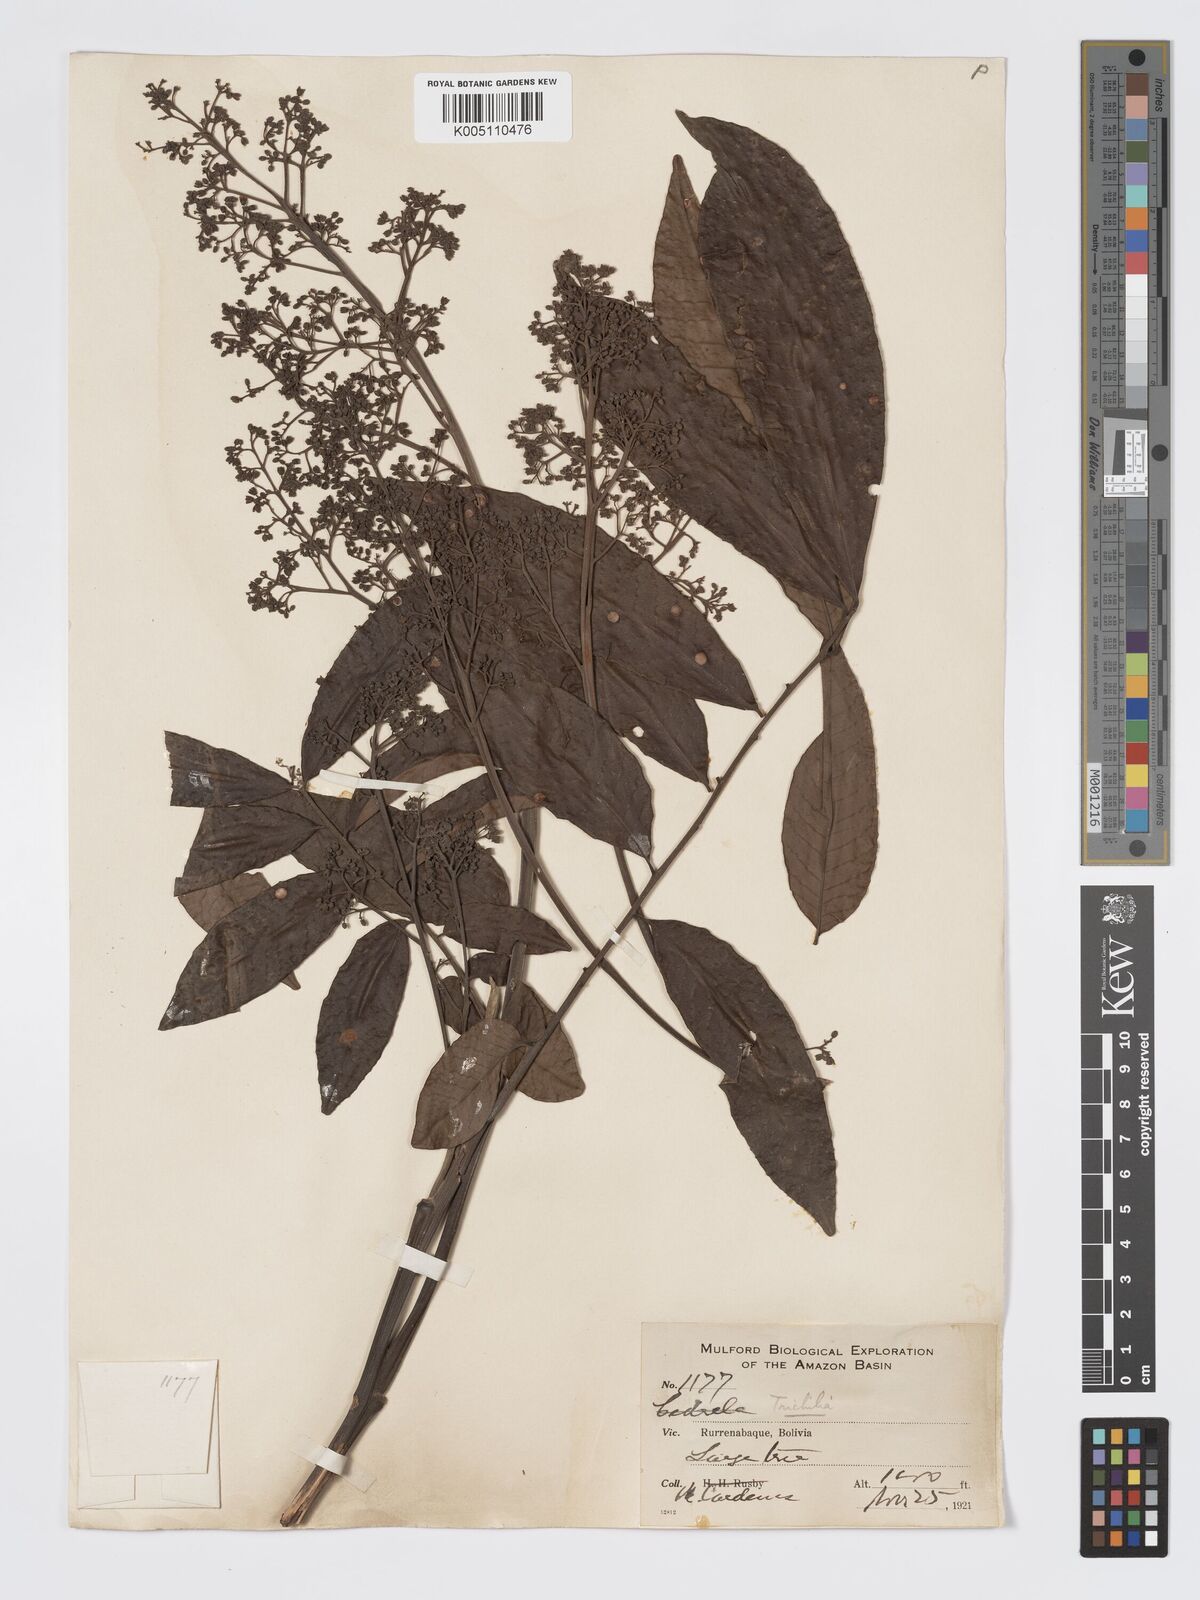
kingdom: Plantae
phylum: Tracheophyta
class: Magnoliopsida
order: Sapindales
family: Meliaceae
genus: Trichilia
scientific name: Trichilia
